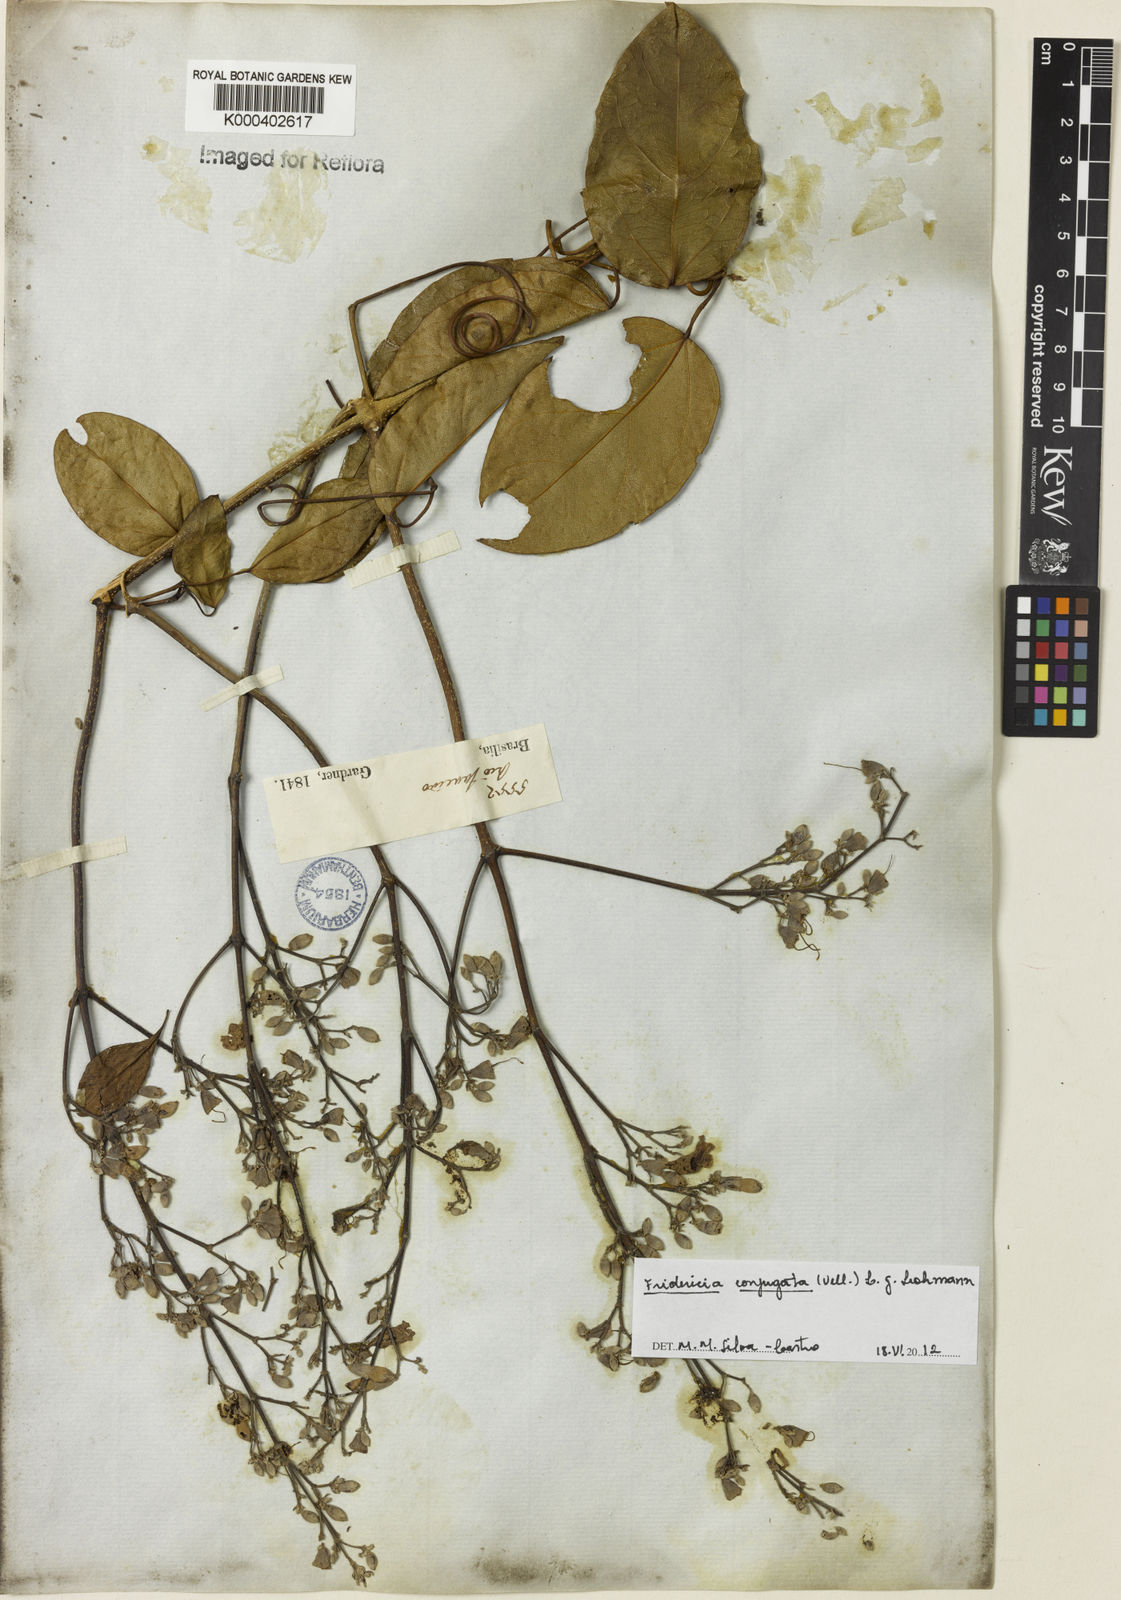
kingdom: Plantae
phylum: Tracheophyta
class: Magnoliopsida
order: Lamiales
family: Bignoniaceae
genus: Fridericia
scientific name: Fridericia conjugata
